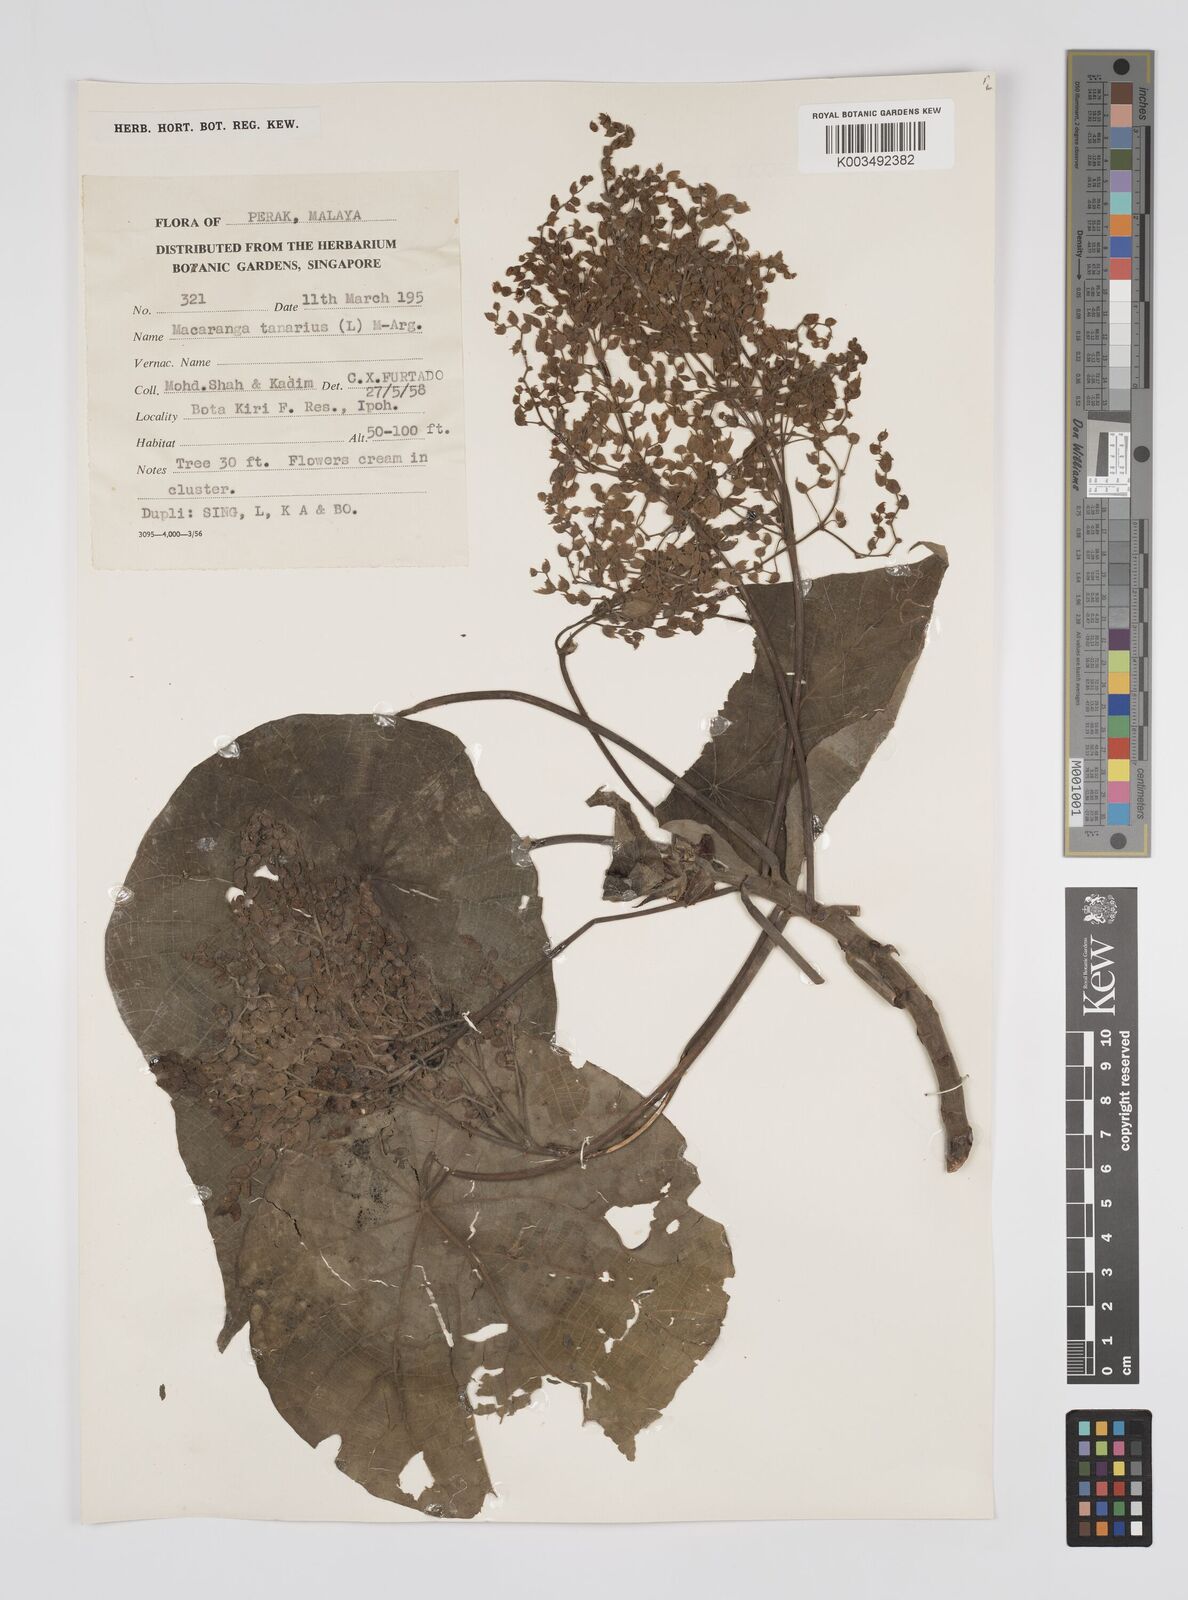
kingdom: Plantae
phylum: Tracheophyta
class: Magnoliopsida
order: Malpighiales
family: Euphorbiaceae
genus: Macaranga
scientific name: Macaranga tanarius
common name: Parasol leaf tree
